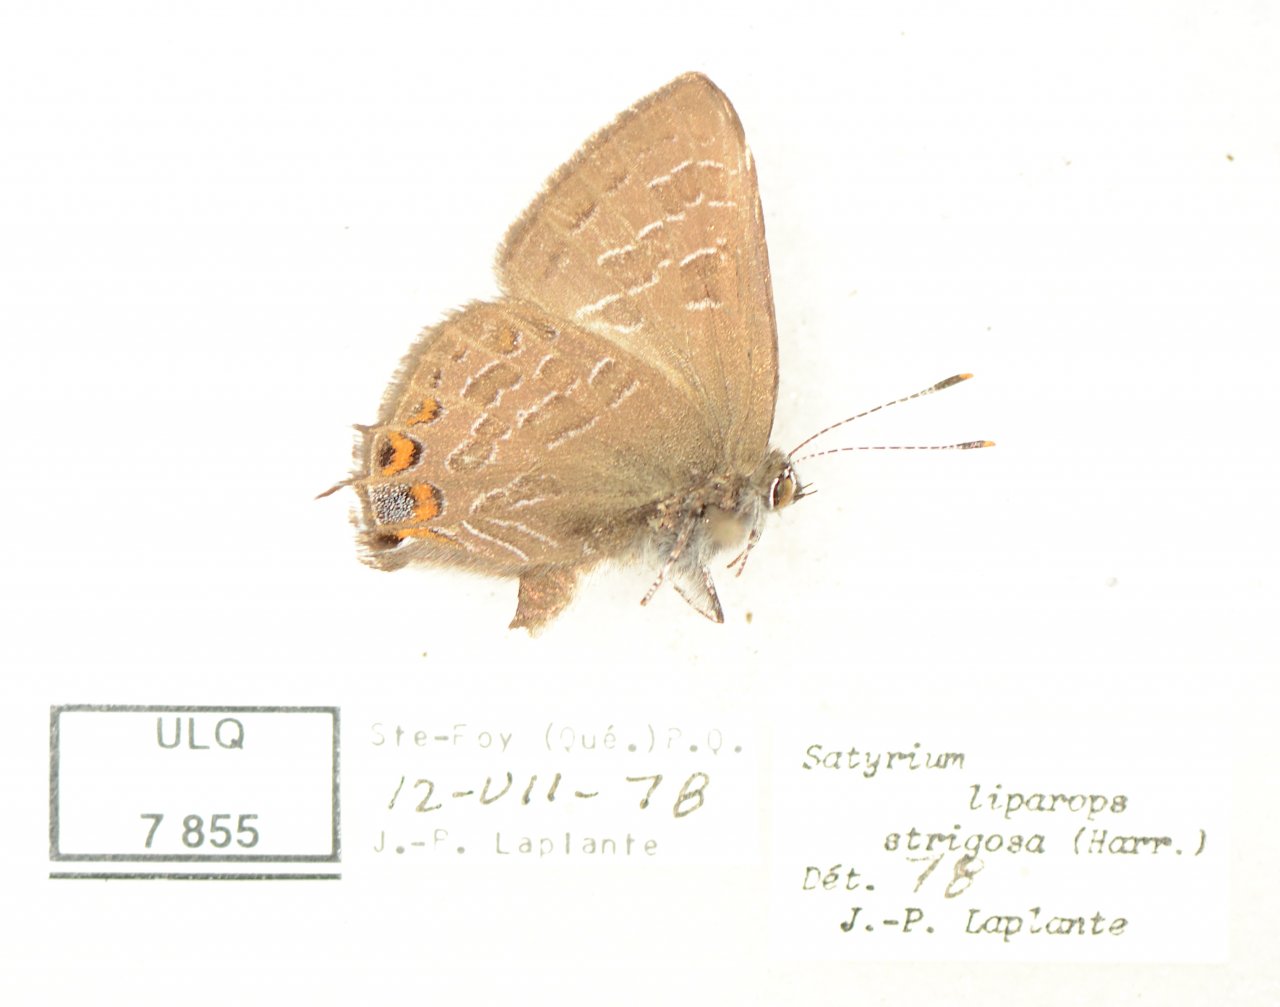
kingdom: Animalia
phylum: Arthropoda
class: Insecta
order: Lepidoptera
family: Lycaenidae
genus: Satyrium
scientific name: Satyrium liparops
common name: Striped Hairstreak
